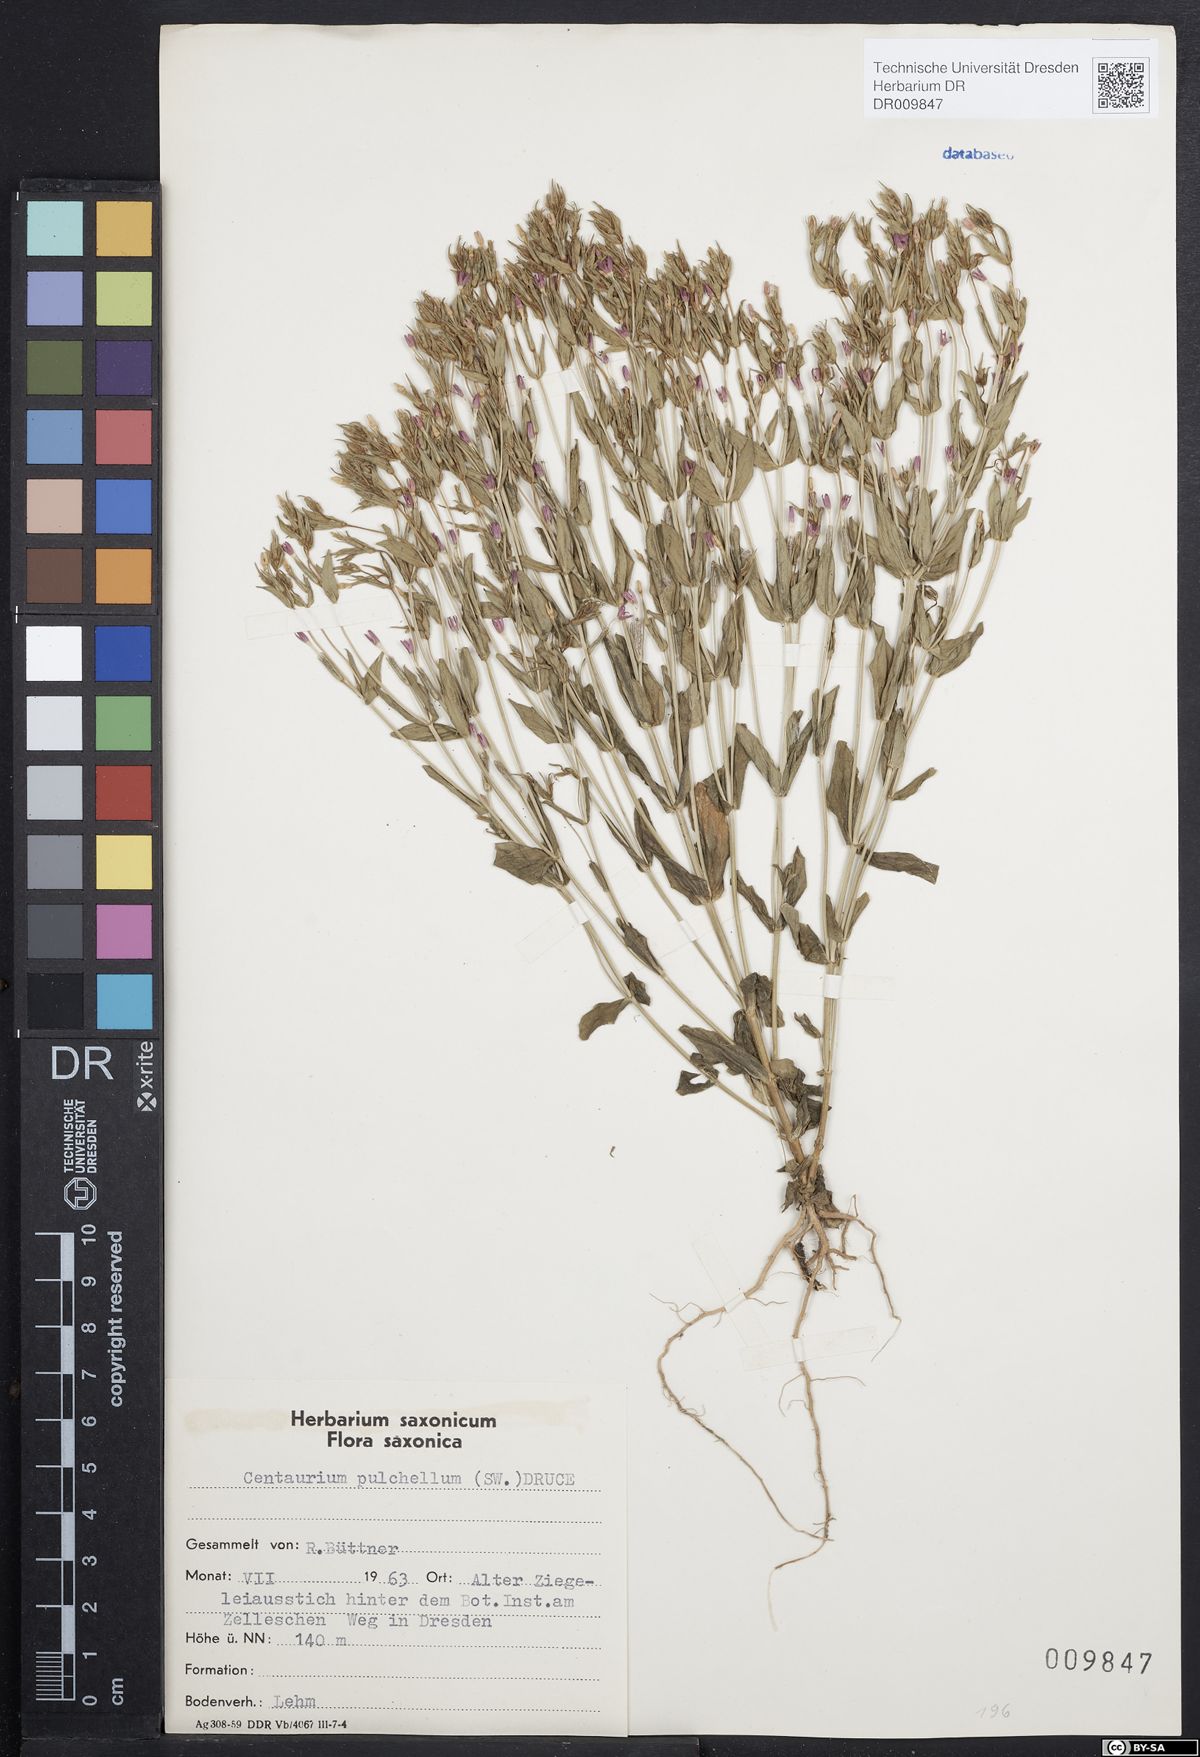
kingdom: Plantae
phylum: Tracheophyta
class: Magnoliopsida
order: Gentianales
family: Gentianaceae
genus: Centaurium
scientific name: Centaurium pulchellum
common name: Lesser centaury
